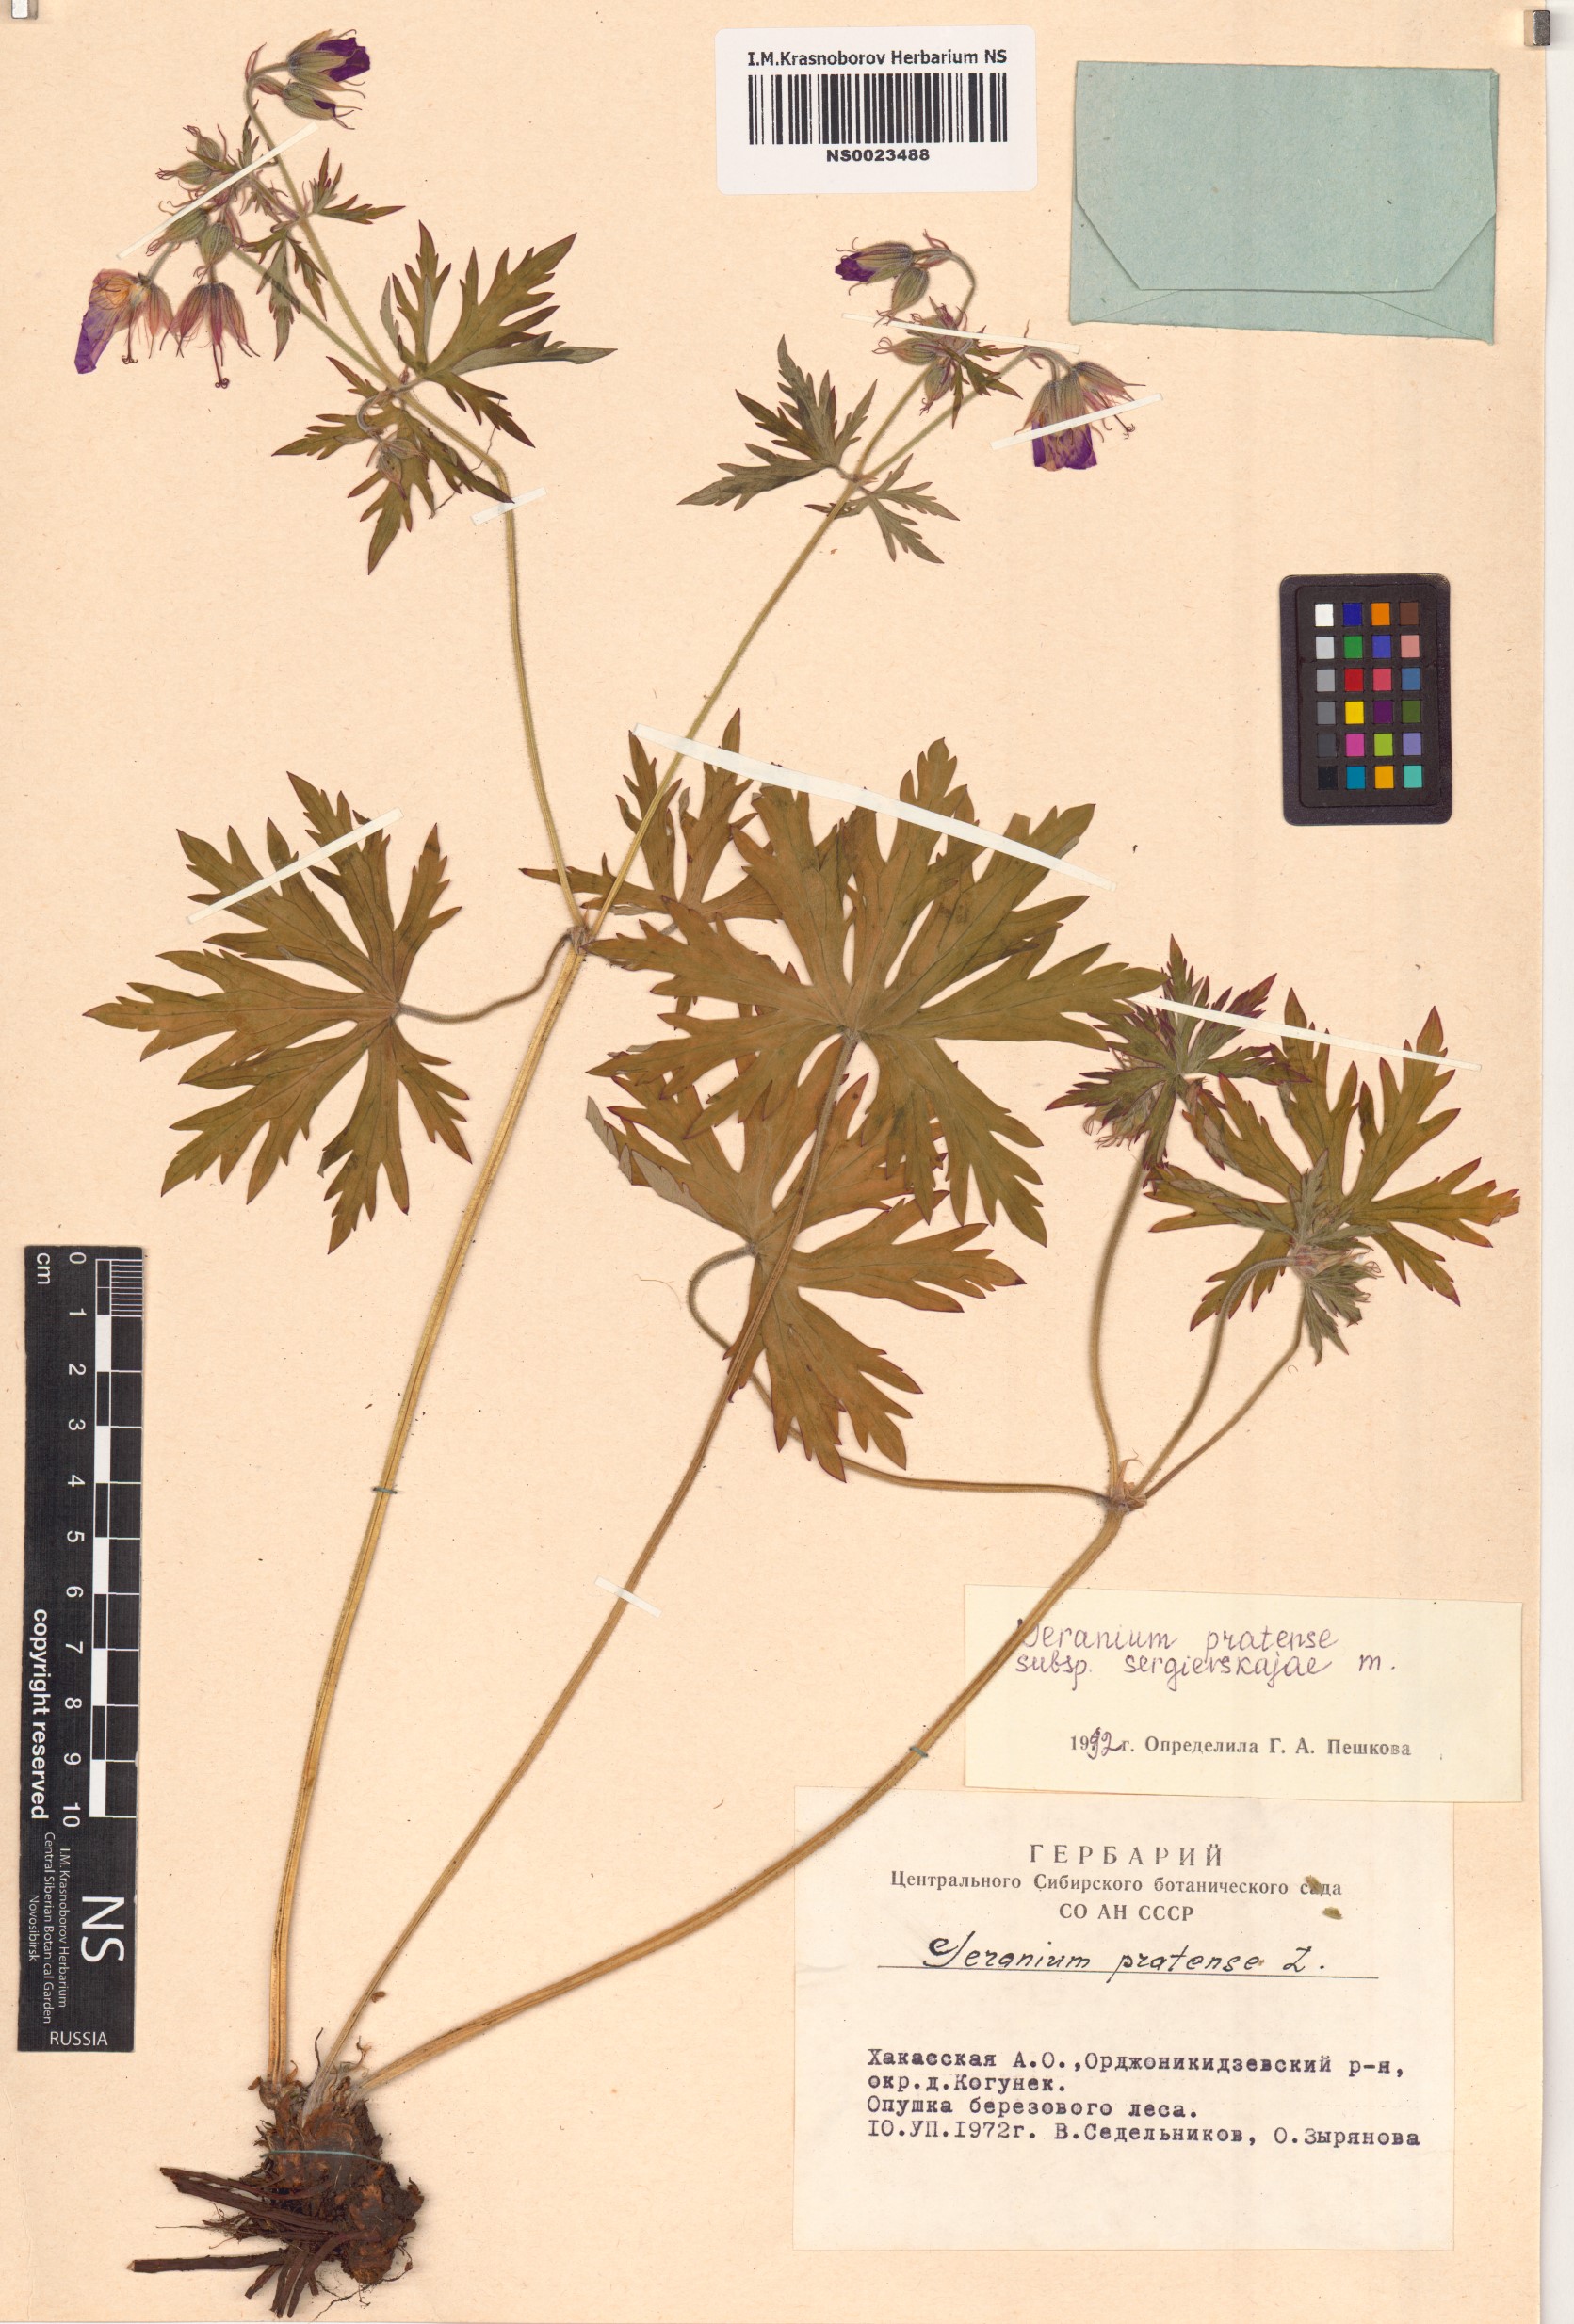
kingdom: Plantae
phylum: Tracheophyta
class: Magnoliopsida
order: Geraniales
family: Geraniaceae
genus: Geranium
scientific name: Geranium pratense
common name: Meadow crane's-bill
